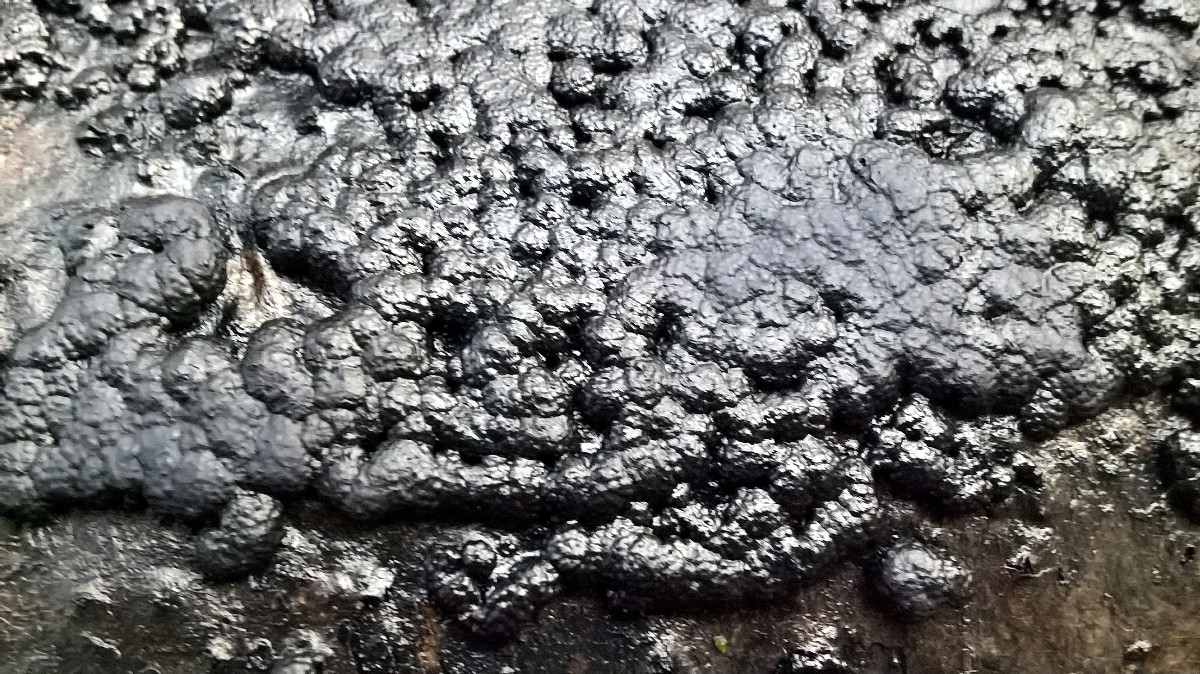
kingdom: Fungi
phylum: Ascomycota
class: Sordariomycetes
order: Xylariales
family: Hypoxylaceae
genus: Jackrogersella
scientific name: Jackrogersella cohaerens
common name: sammenflydende kulbær
